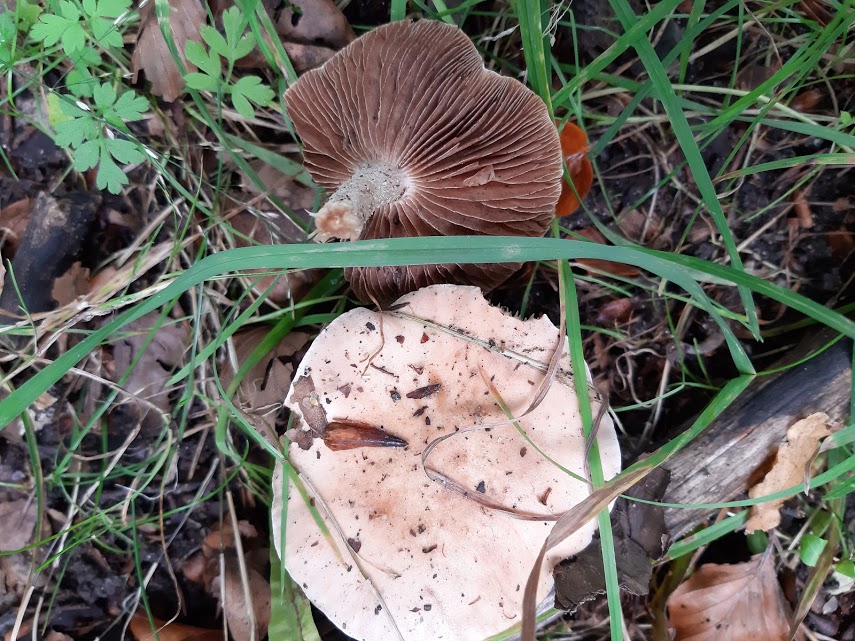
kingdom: Fungi
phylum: Basidiomycota
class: Agaricomycetes
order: Agaricales
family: Hymenogastraceae
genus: Hebeloma
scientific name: Hebeloma
